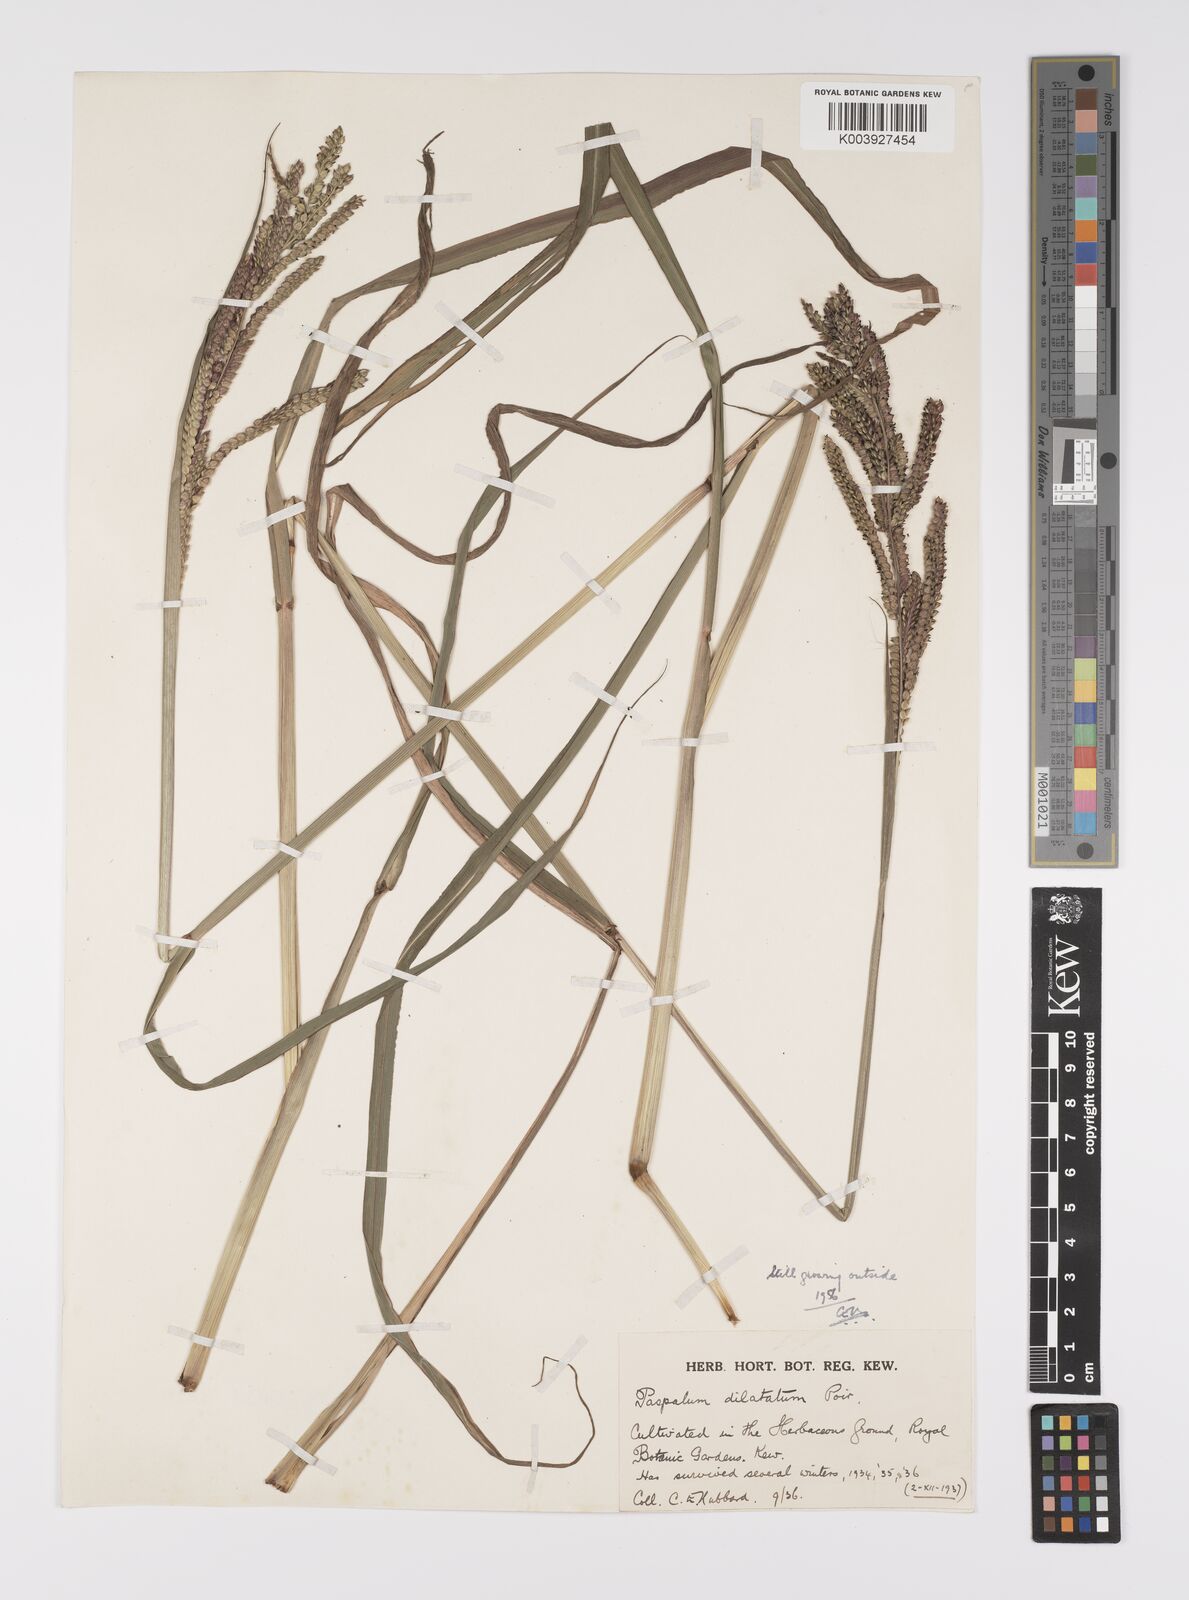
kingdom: Plantae
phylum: Tracheophyta
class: Liliopsida
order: Poales
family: Poaceae
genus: Paspalum
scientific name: Paspalum dilatatum
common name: Dallisgrass
